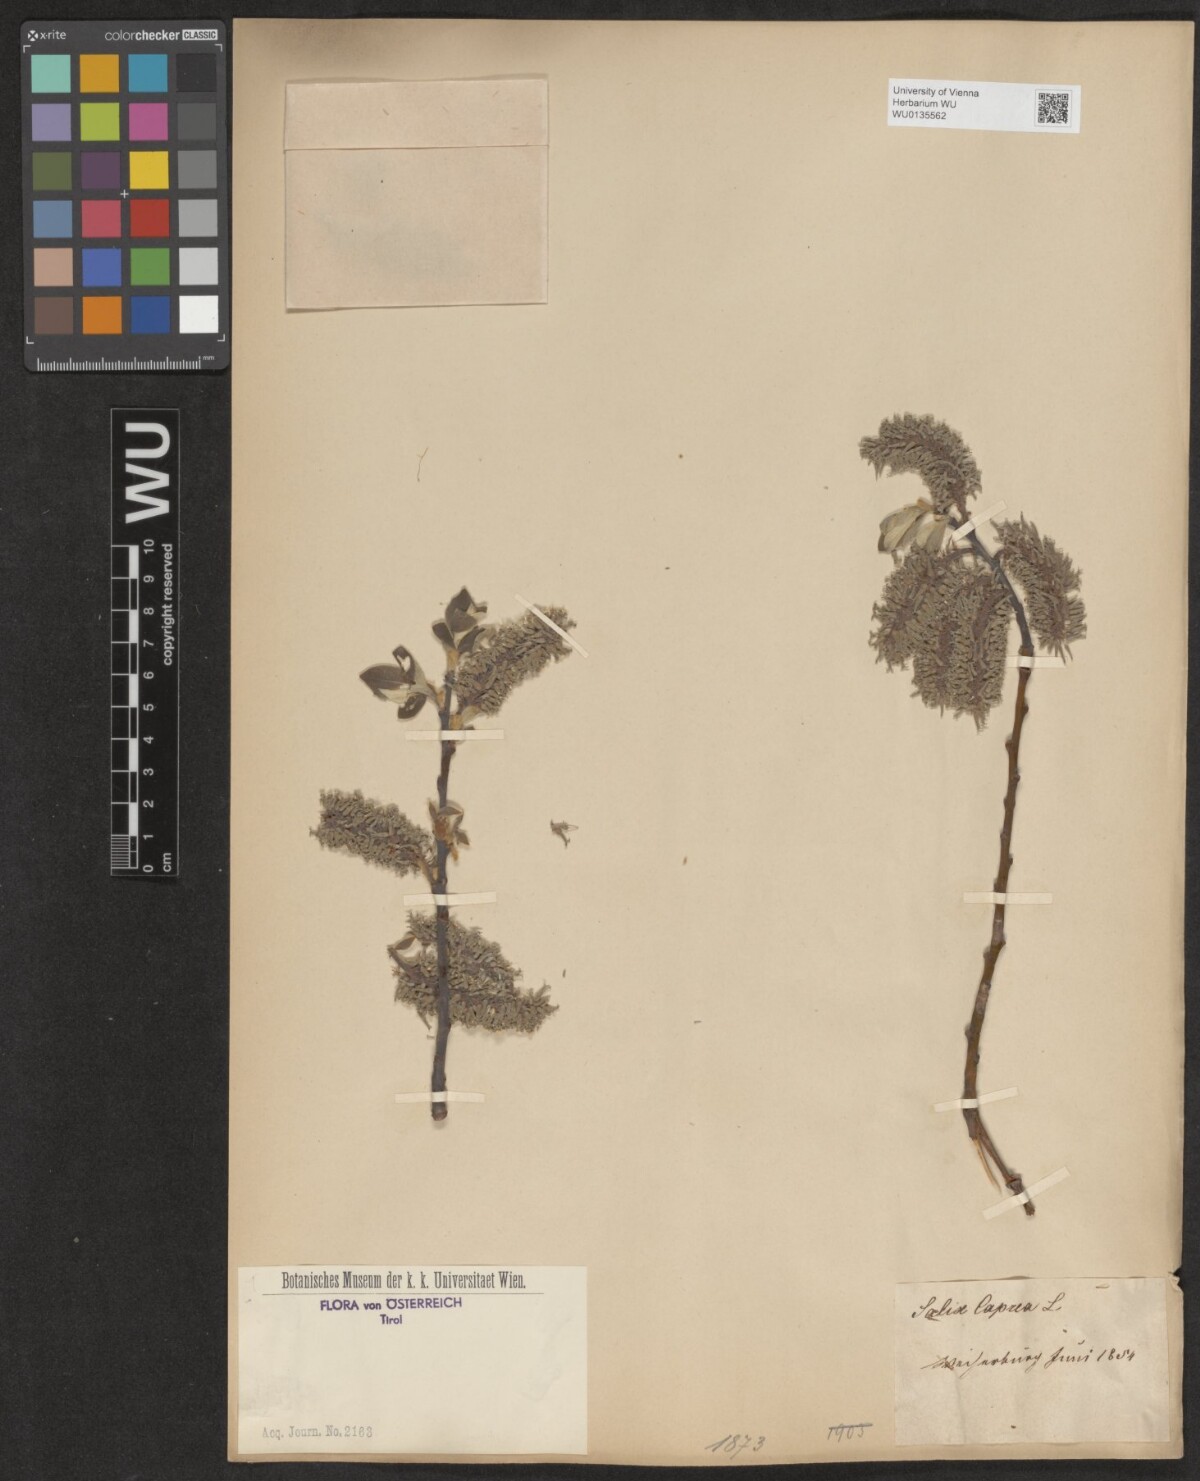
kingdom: Plantae
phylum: Tracheophyta
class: Magnoliopsida
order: Malpighiales
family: Salicaceae
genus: Salix
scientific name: Salix caprea
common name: Goat willow
